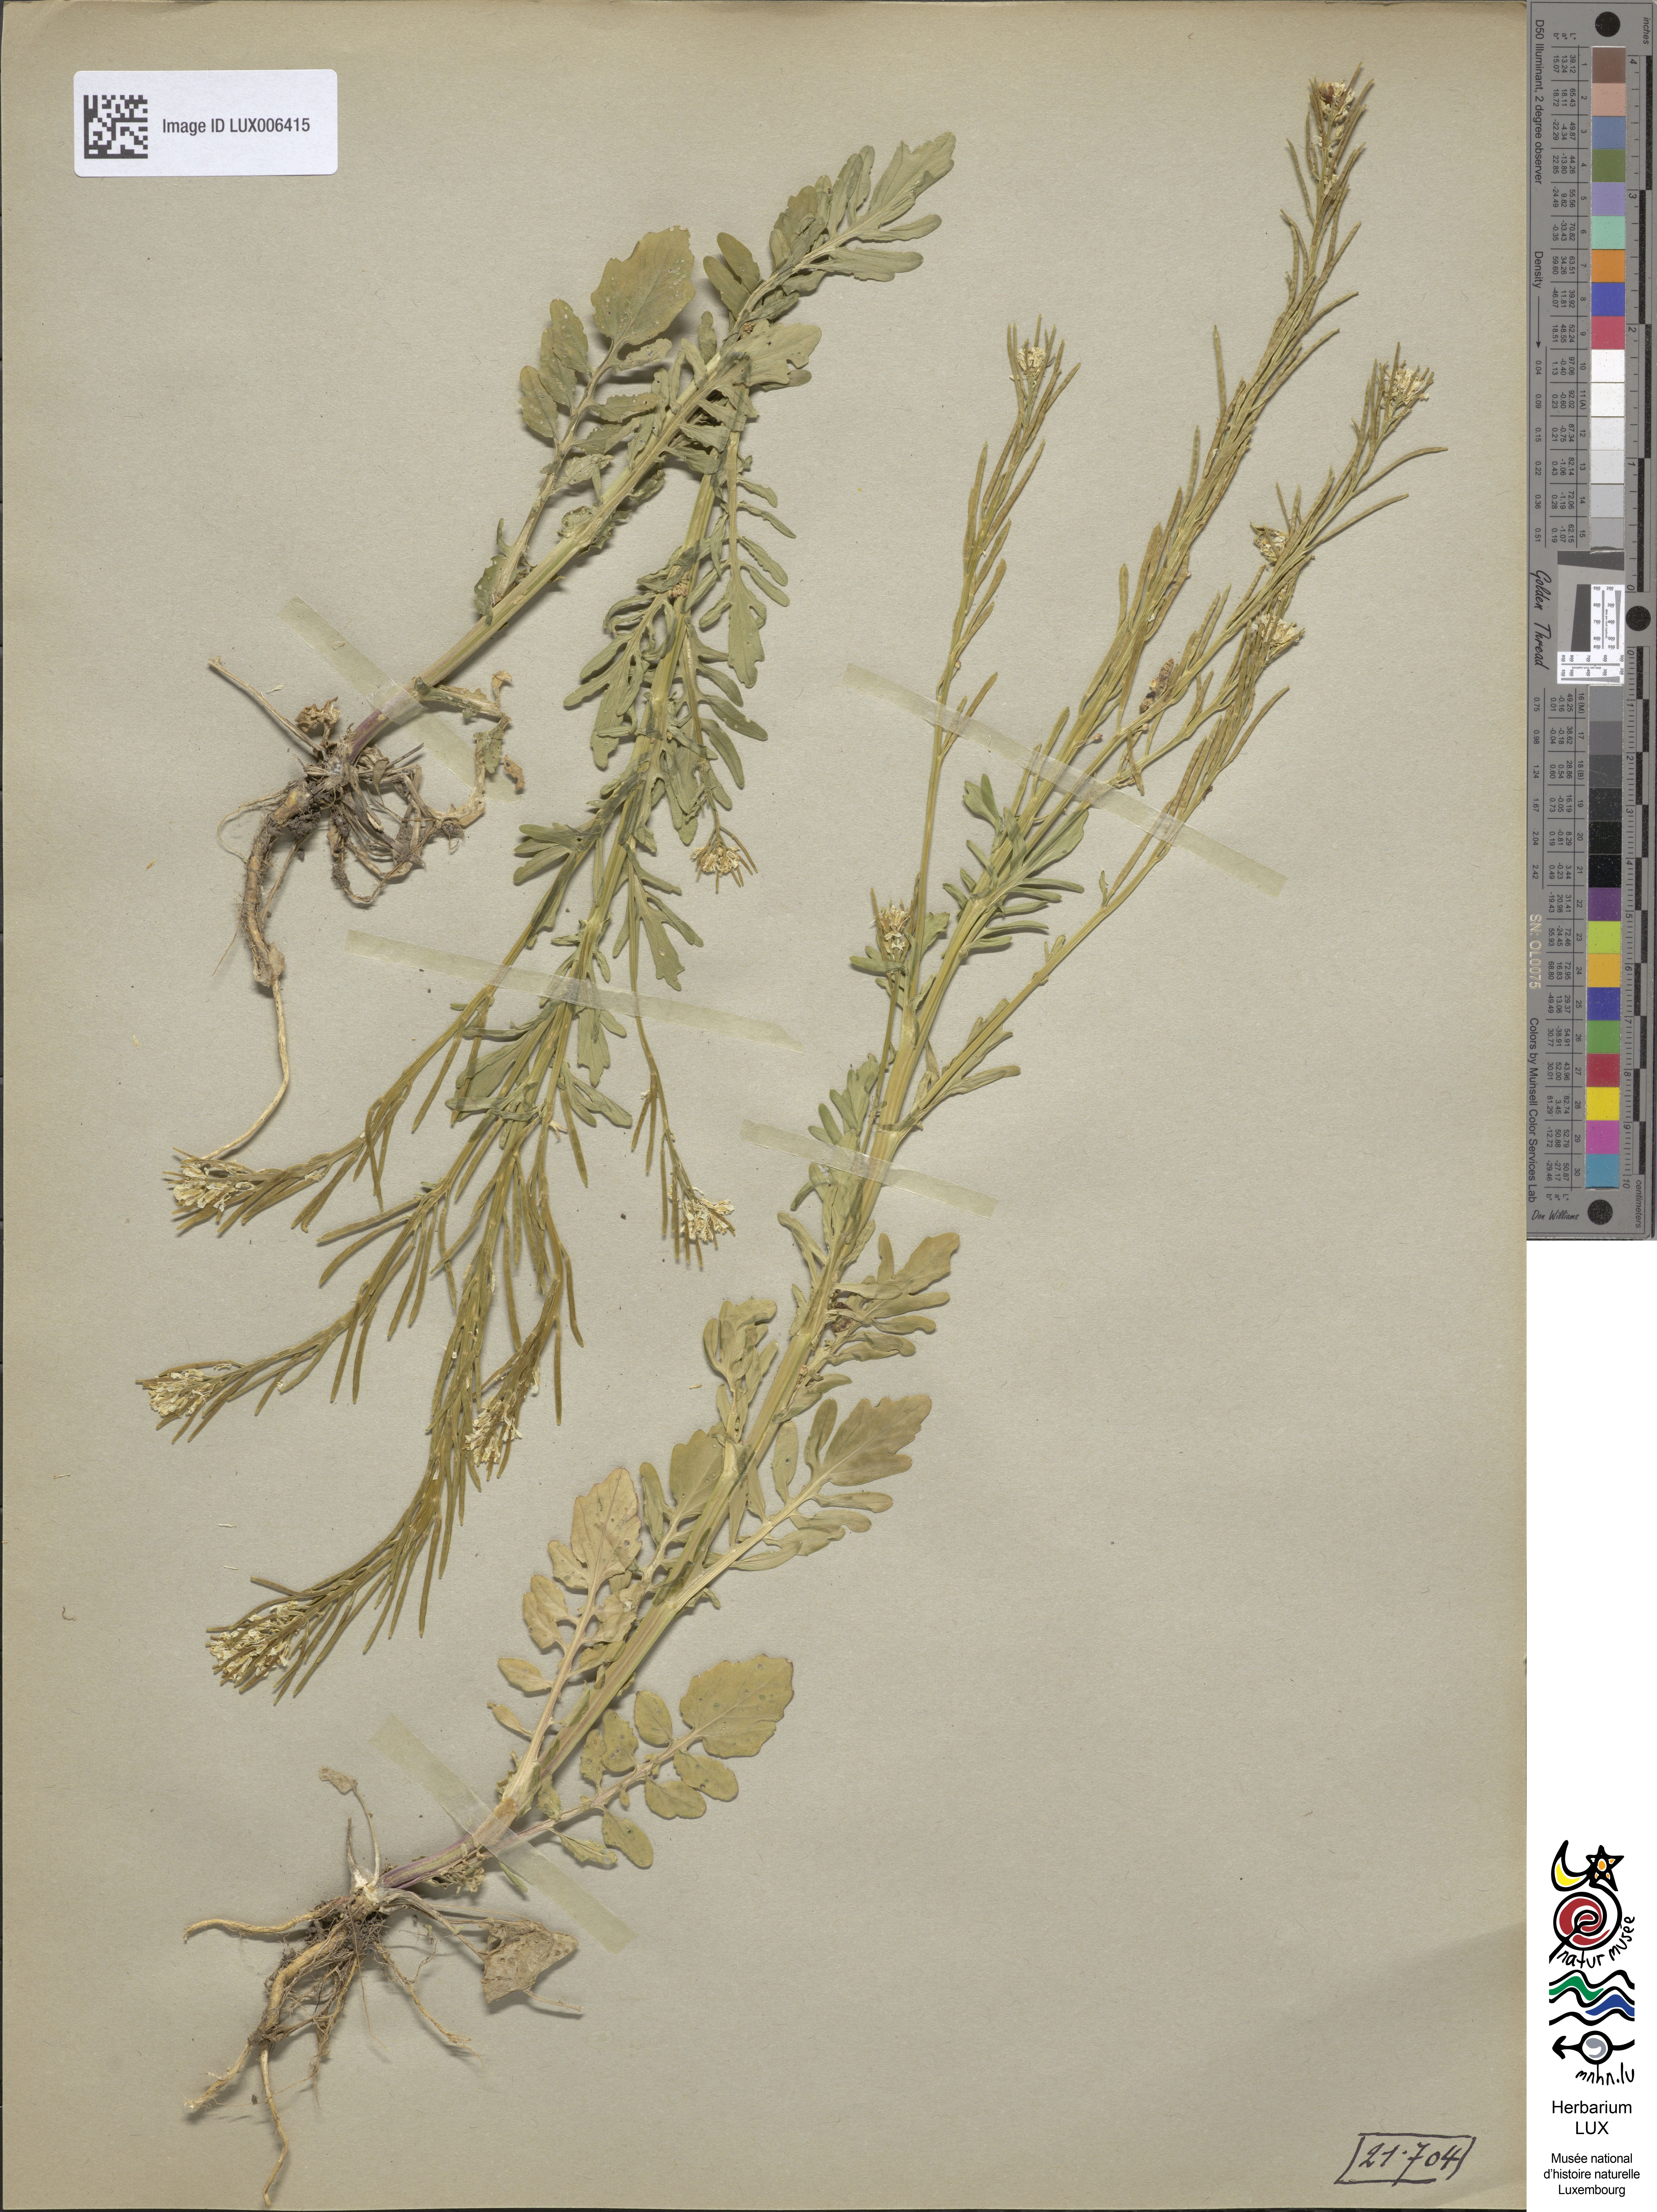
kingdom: Plantae
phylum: Tracheophyta
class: Magnoliopsida
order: Brassicales
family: Brassicaceae
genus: Barbarea
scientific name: Barbarea intermedia
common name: Medium-flowered winter-cress
